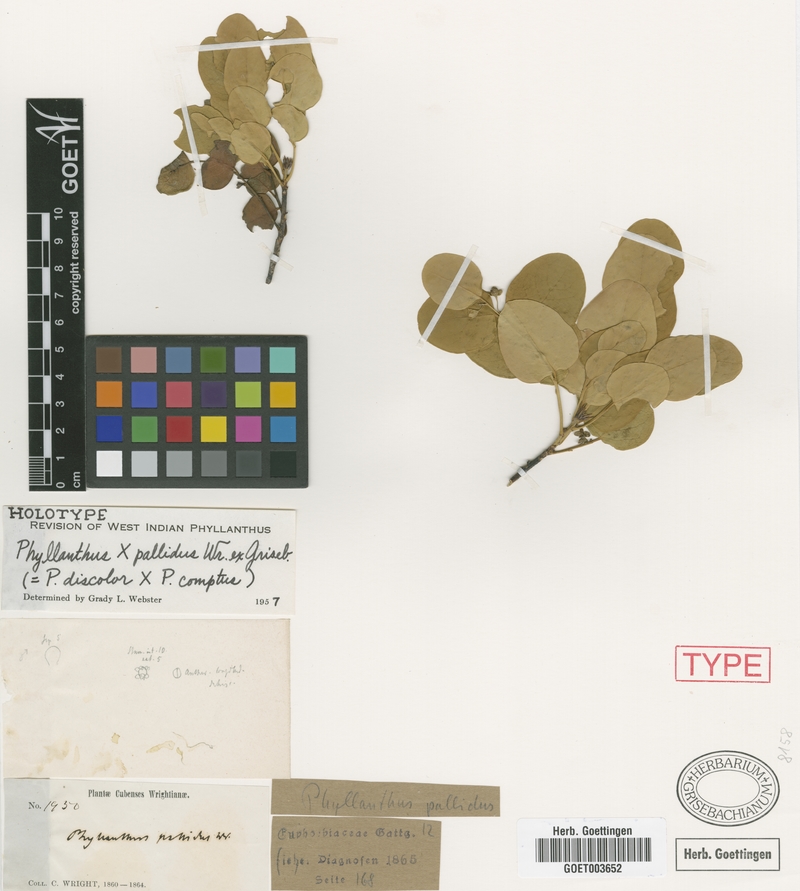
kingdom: Plantae
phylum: Tracheophyta
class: Magnoliopsida
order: Malpighiales
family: Phyllanthaceae
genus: Phyllanthus
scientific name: Phyllanthus pallidus
